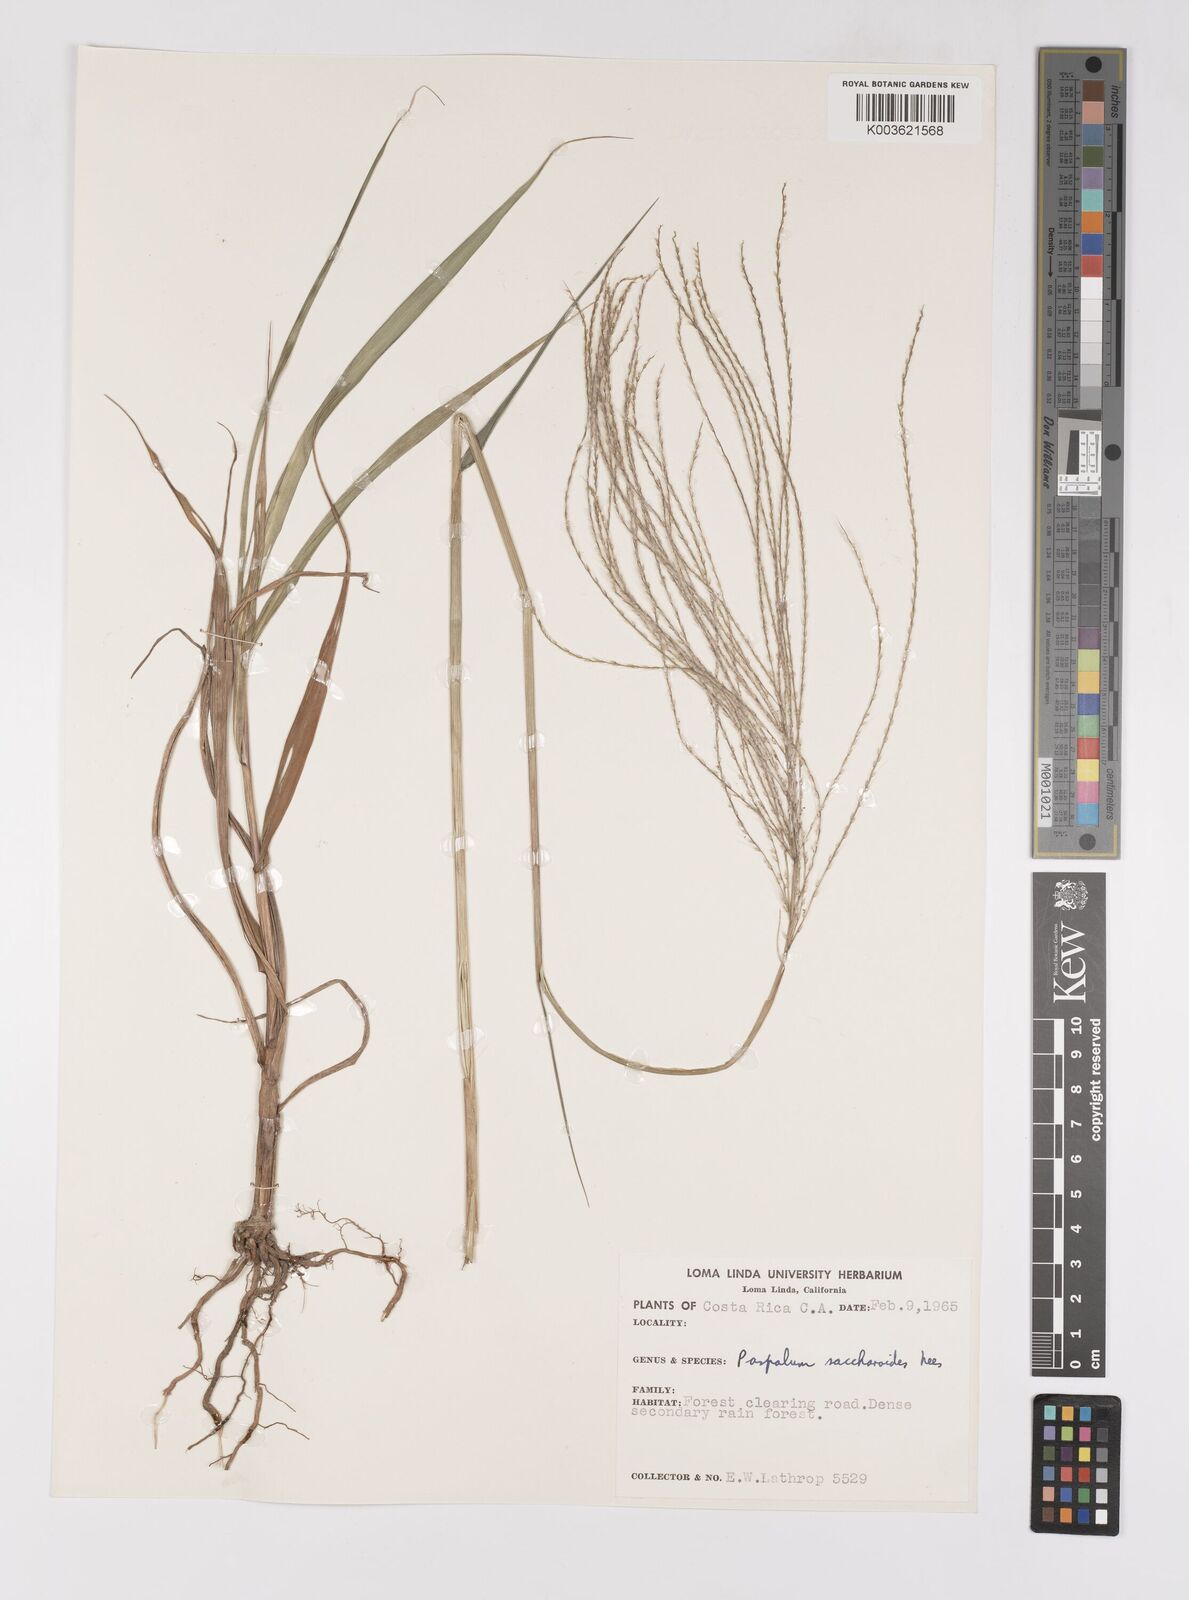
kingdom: Plantae
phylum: Tracheophyta
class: Liliopsida
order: Poales
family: Poaceae
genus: Paspalum
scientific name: Paspalum saccharoides
